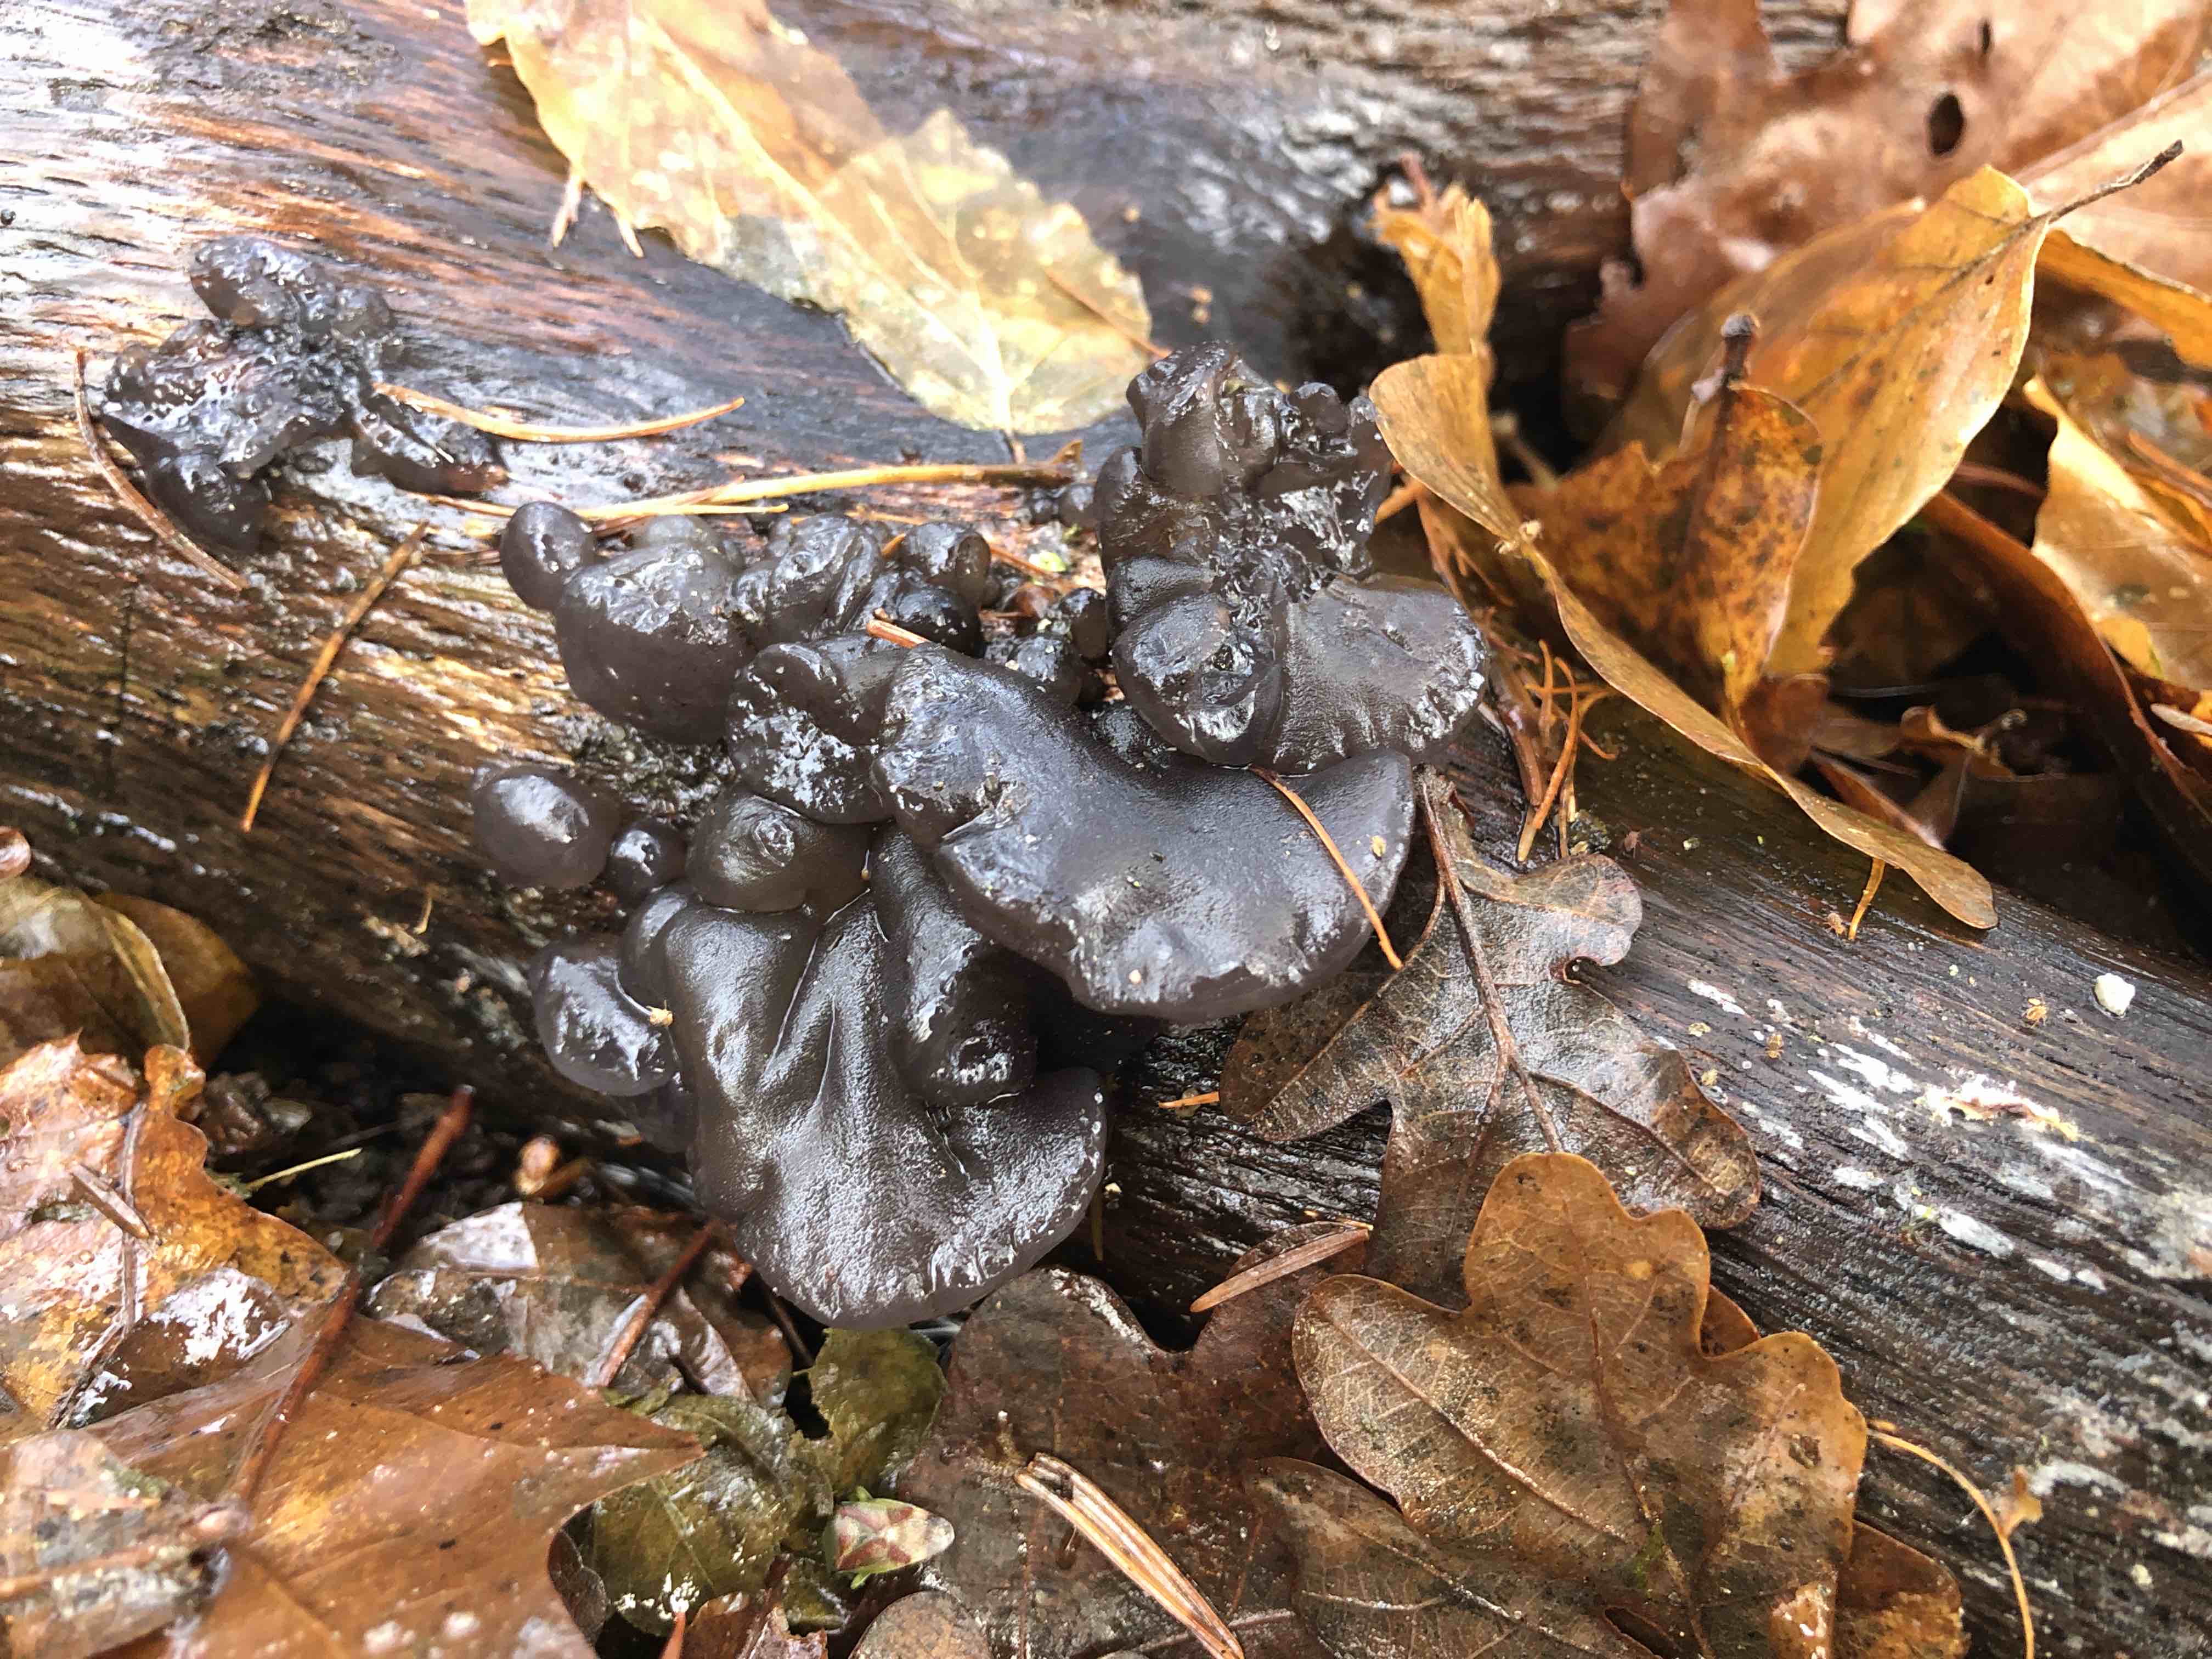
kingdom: Fungi
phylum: Basidiomycota
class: Agaricomycetes
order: Auriculariales
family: Auriculariaceae
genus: Exidia
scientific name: Exidia glandulosa
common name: ege-bævretop
